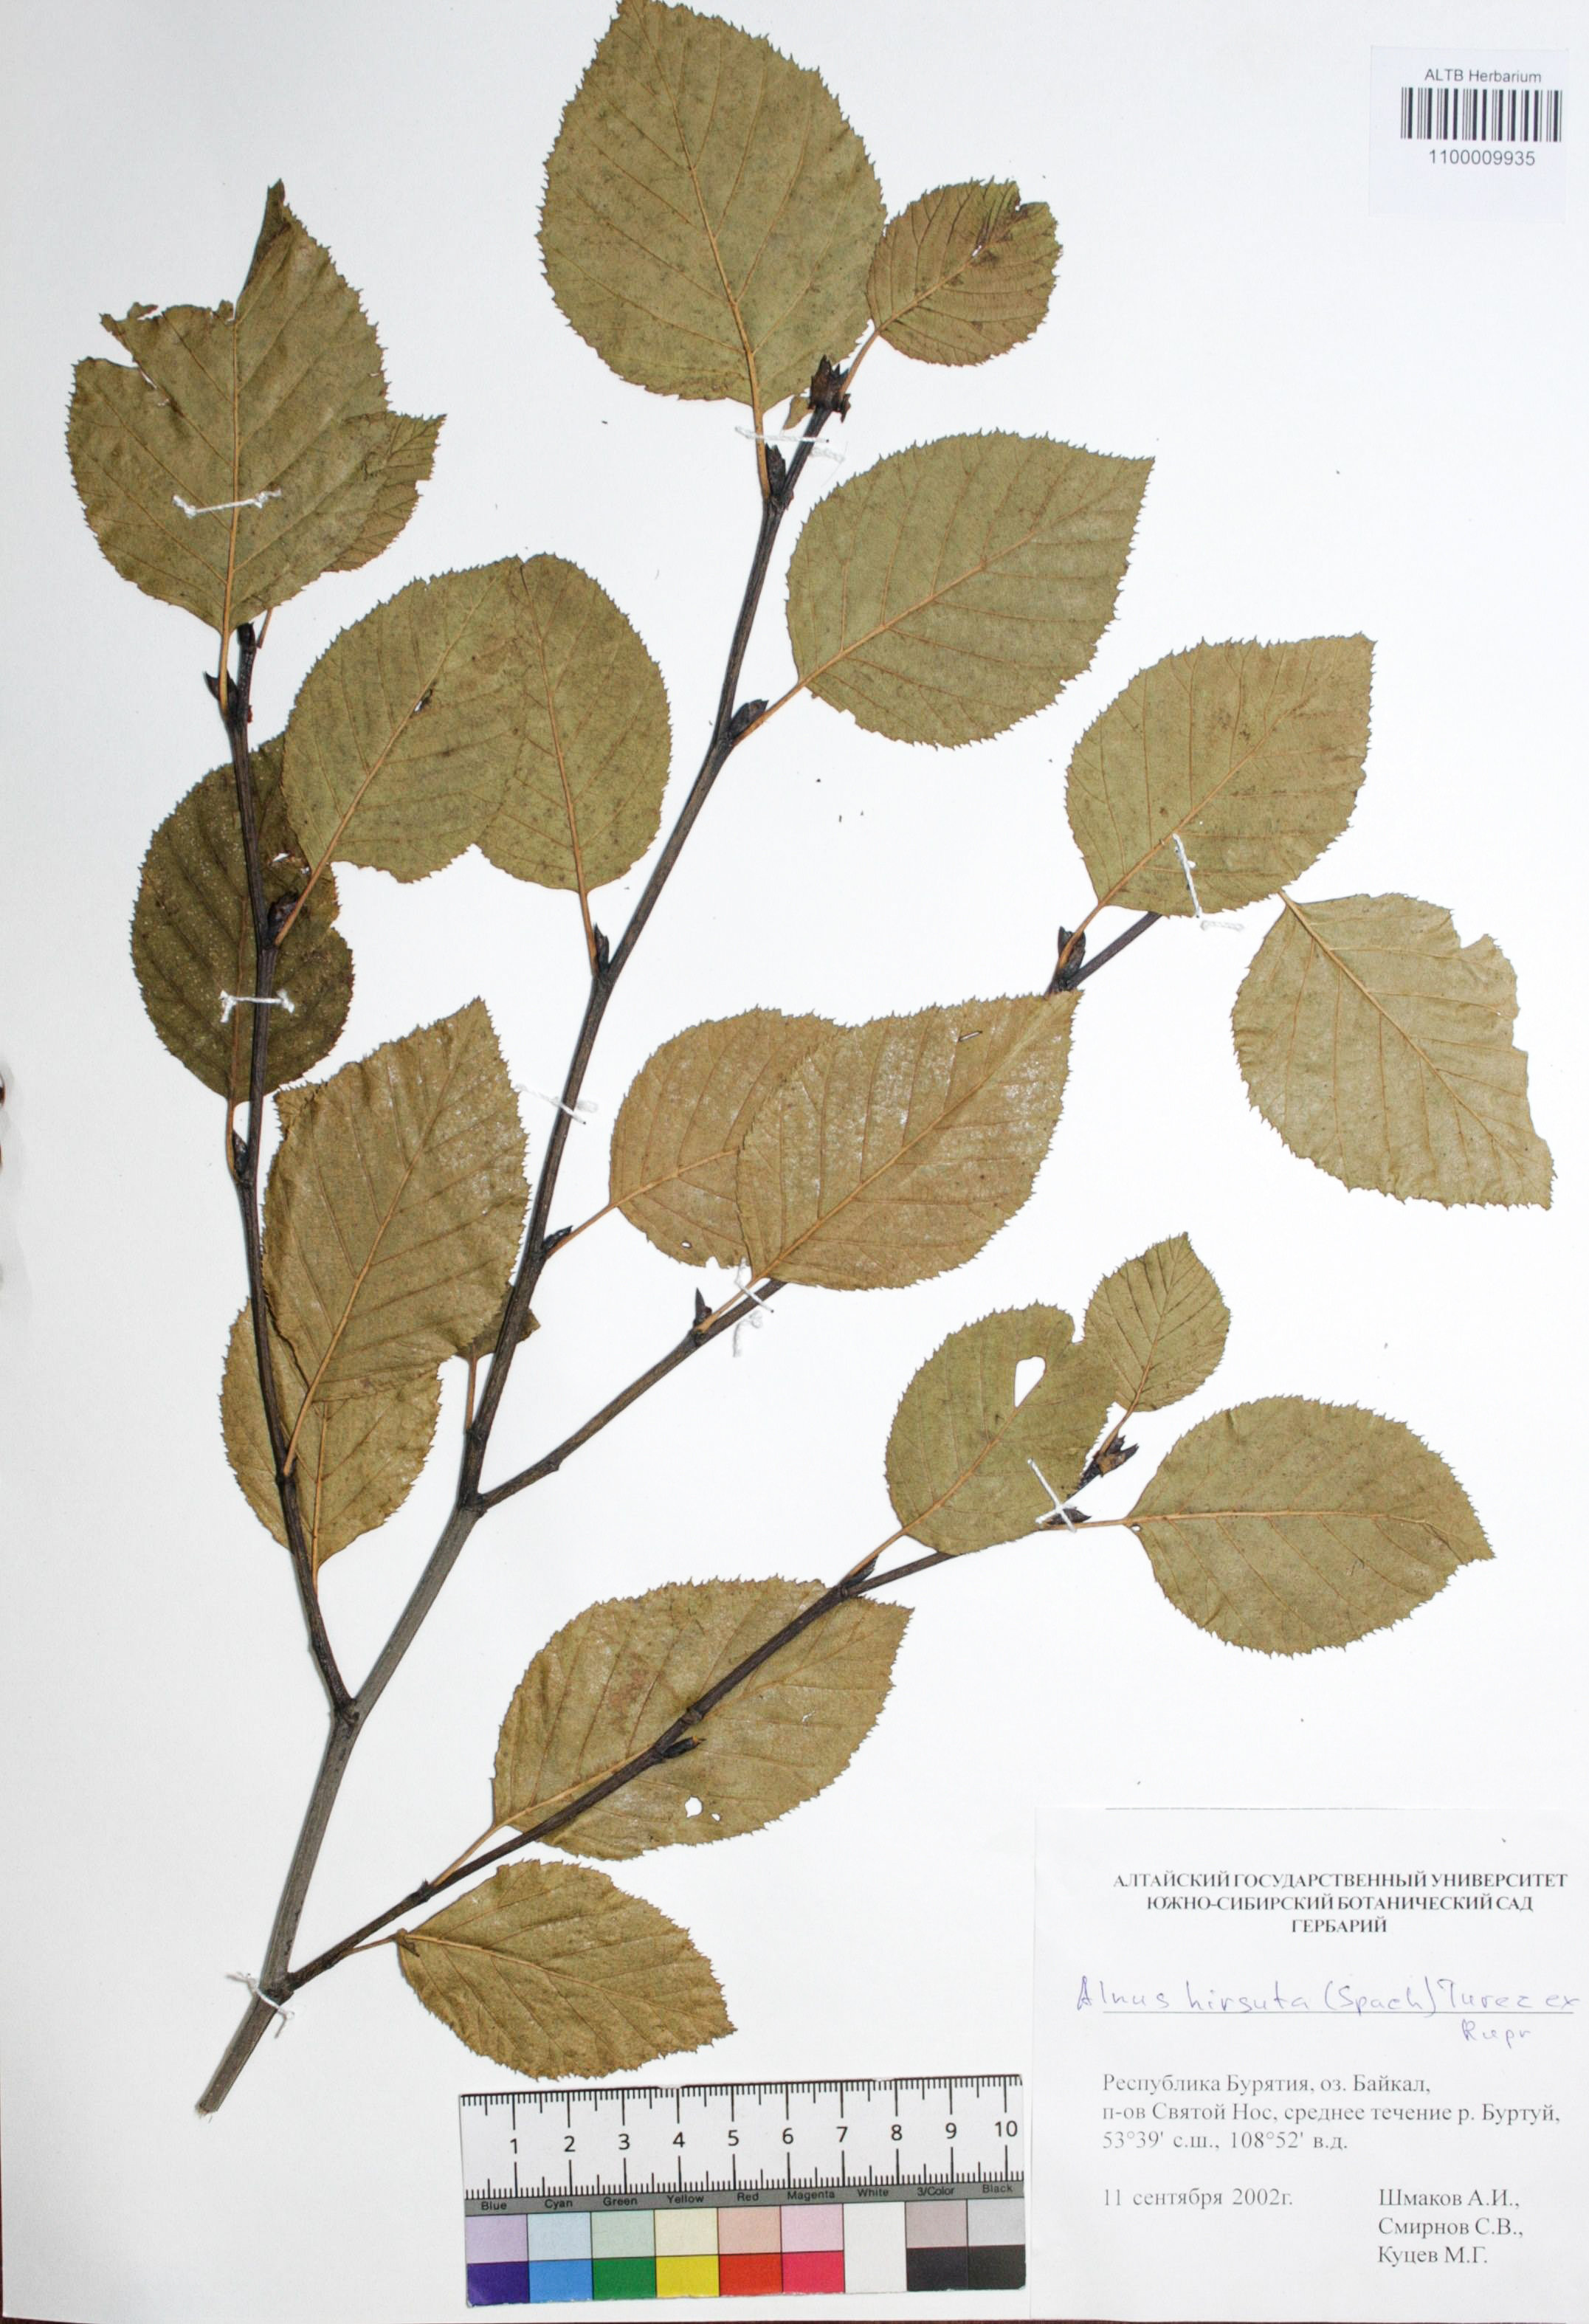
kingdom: Plantae
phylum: Tracheophyta
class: Magnoliopsida
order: Fagales
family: Betulaceae
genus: Alnus
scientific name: Alnus hirsuta
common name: Manchurian alder
